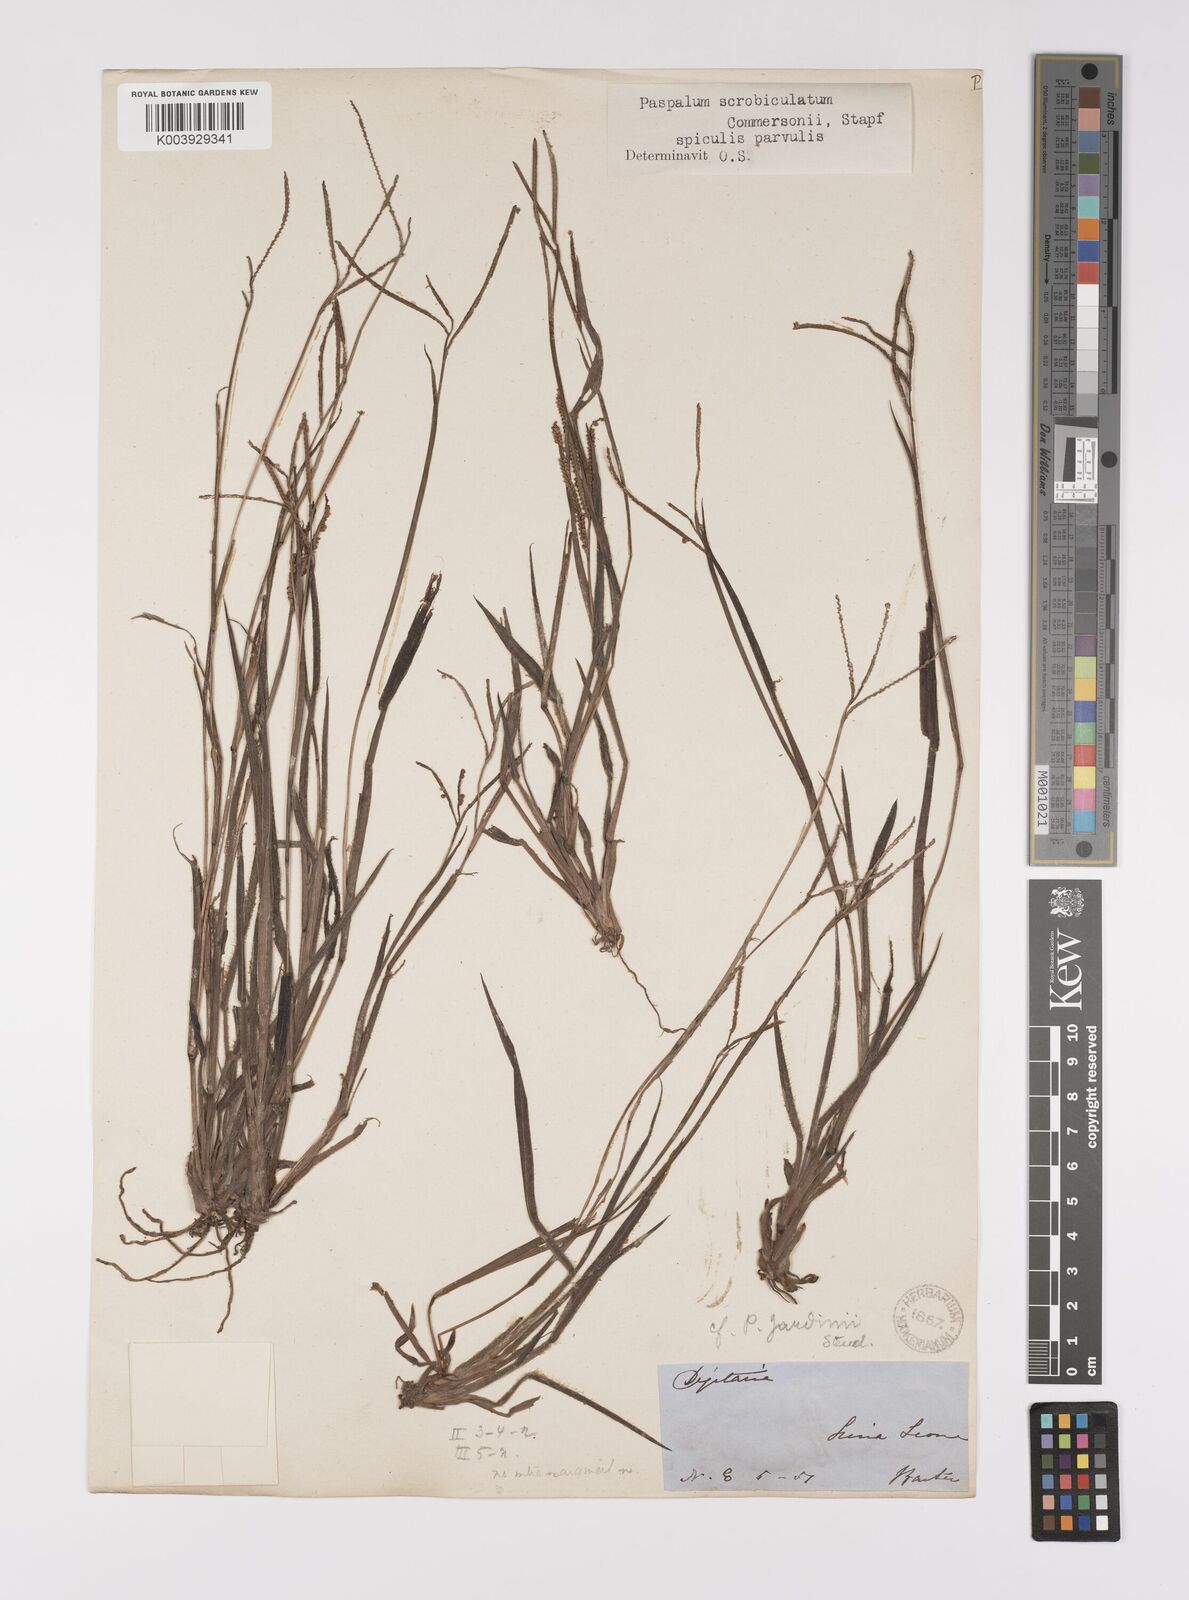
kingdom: Plantae
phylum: Tracheophyta
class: Liliopsida
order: Poales
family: Poaceae
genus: Paspalum
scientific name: Paspalum scrobiculatum
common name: Kodo millet
